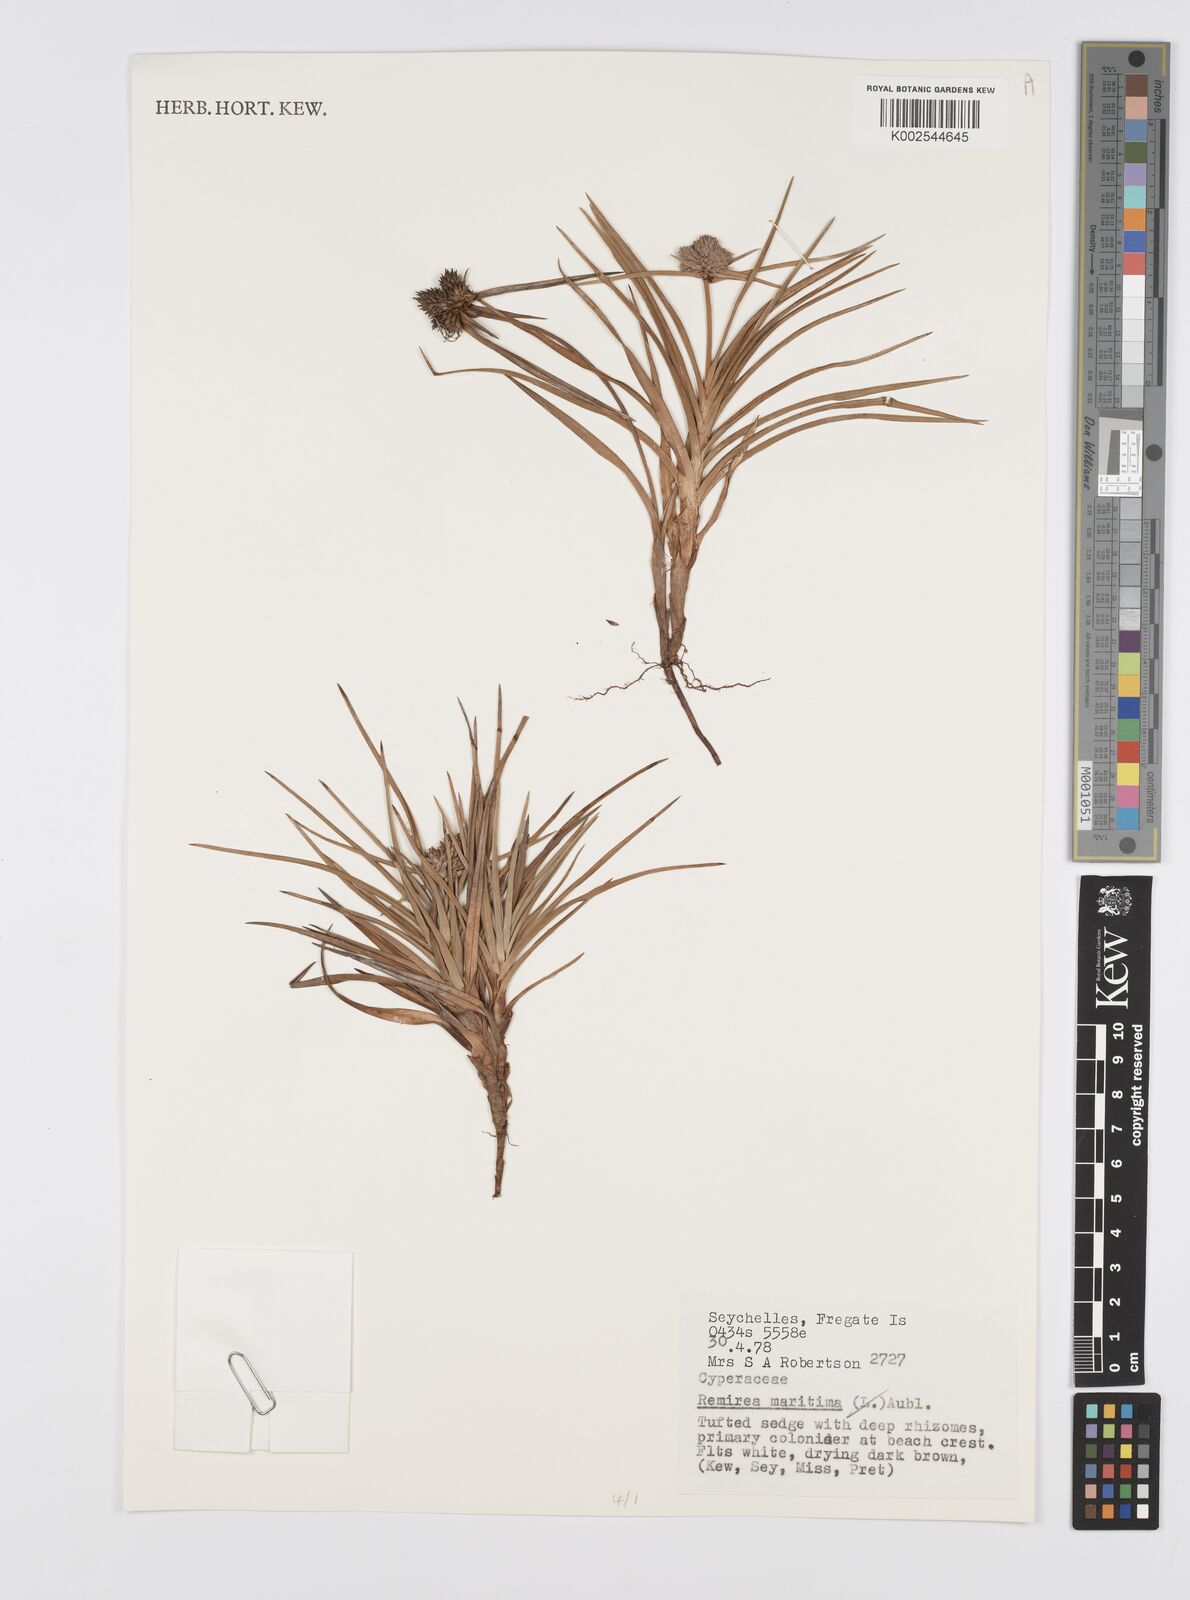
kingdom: Plantae
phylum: Tracheophyta
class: Liliopsida
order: Poales
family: Cyperaceae
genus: Cyperus
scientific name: Cyperus
